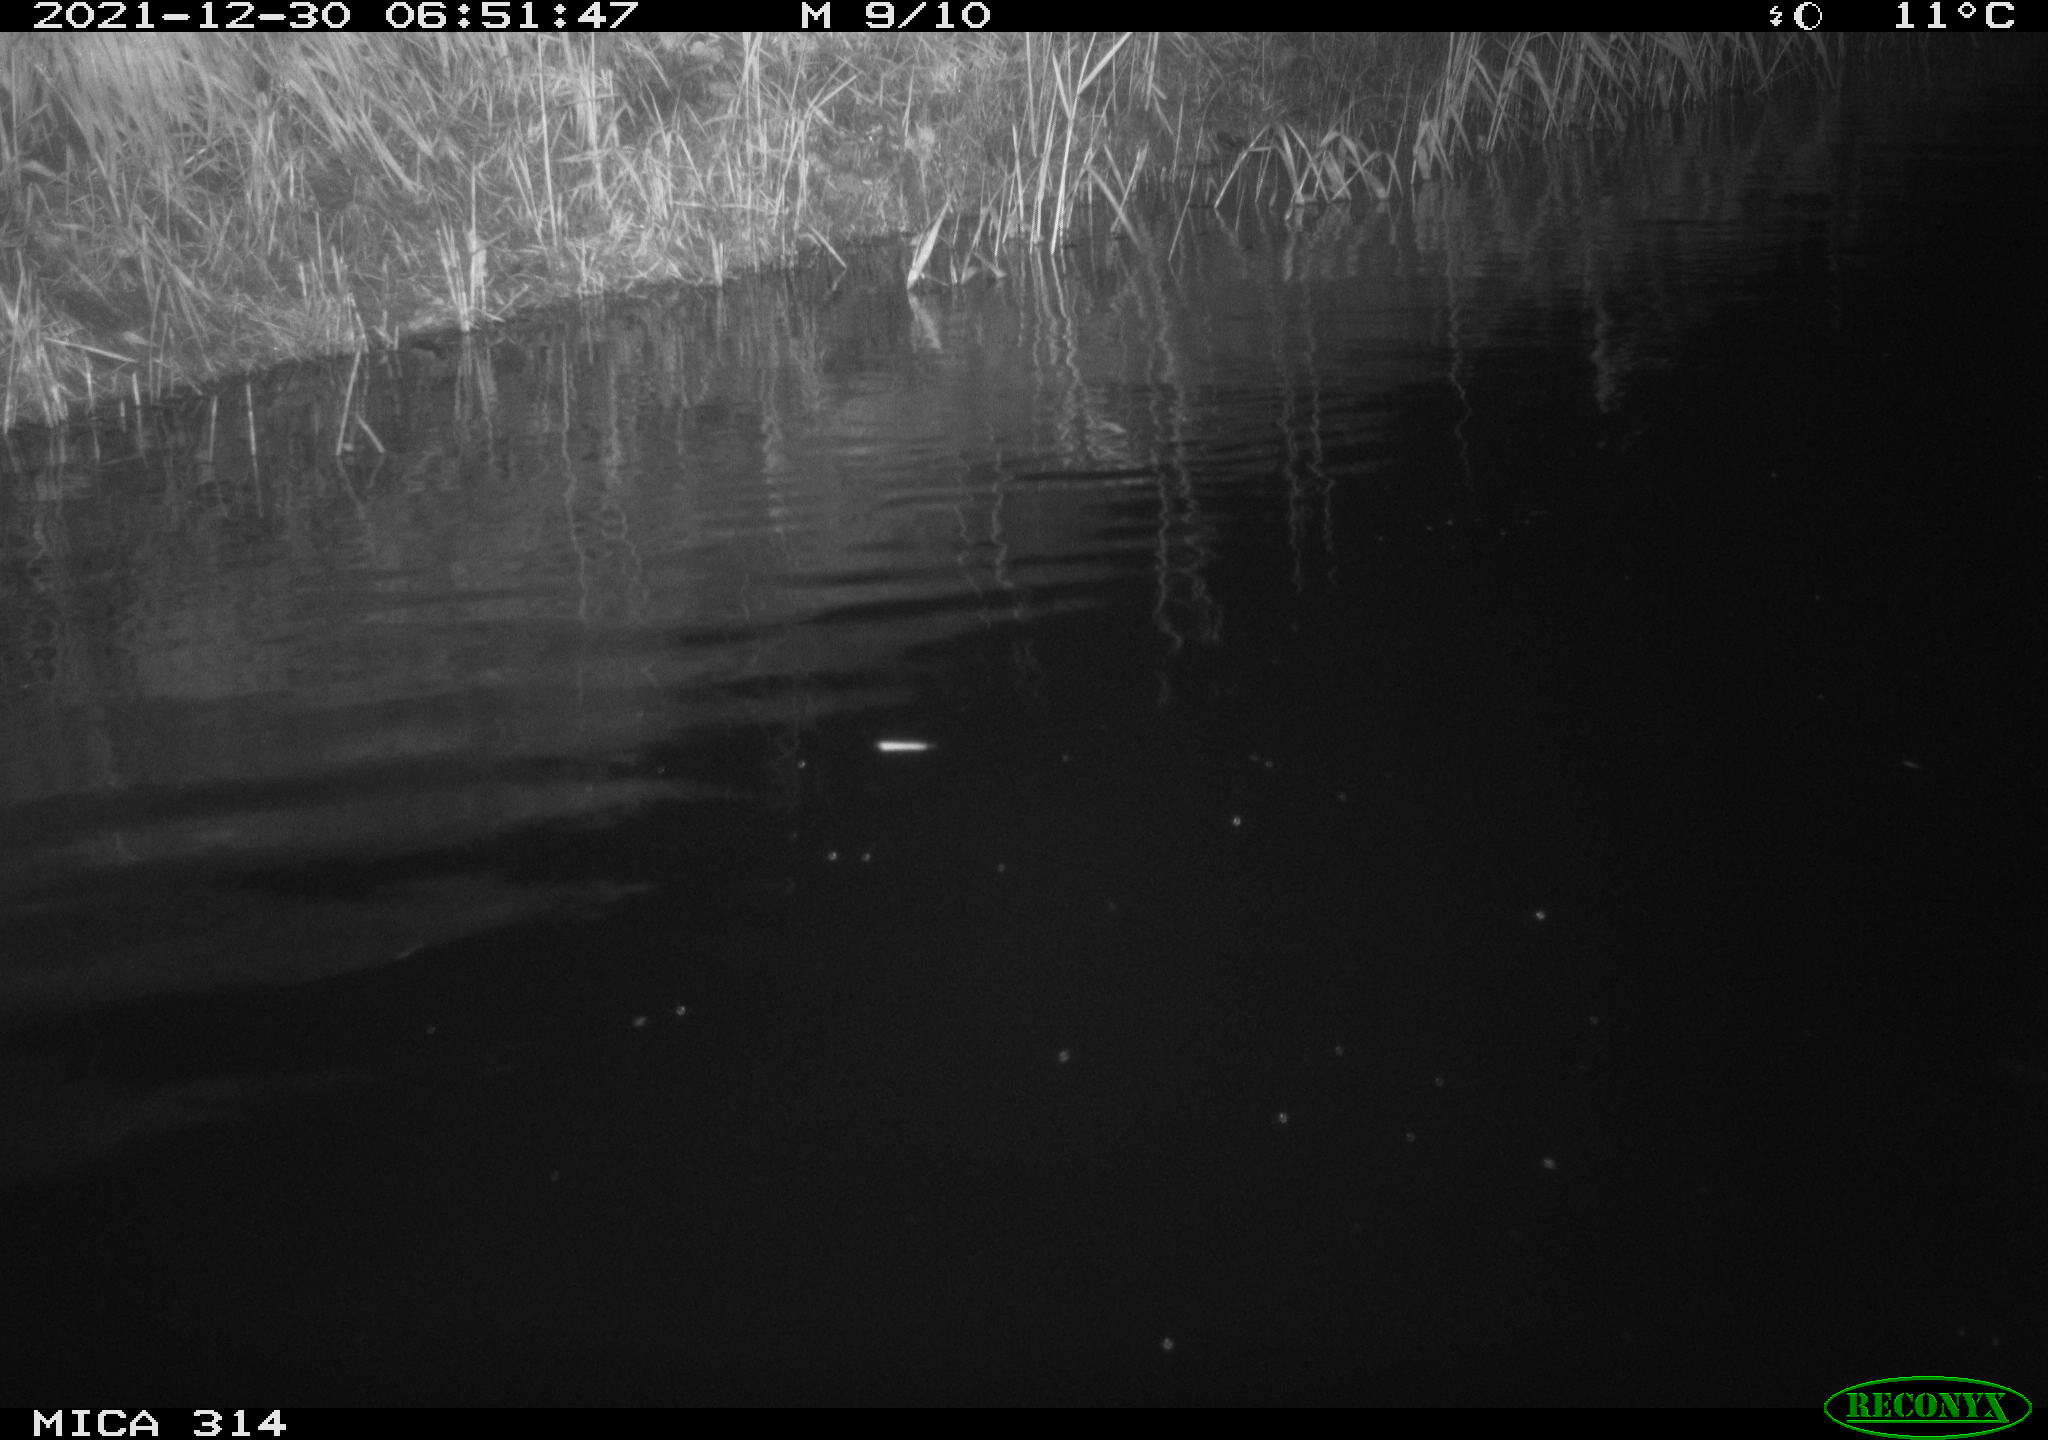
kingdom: Animalia
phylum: Chordata
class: Mammalia
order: Rodentia
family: Cricetidae
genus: Ondatra
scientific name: Ondatra zibethicus
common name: Muskrat
